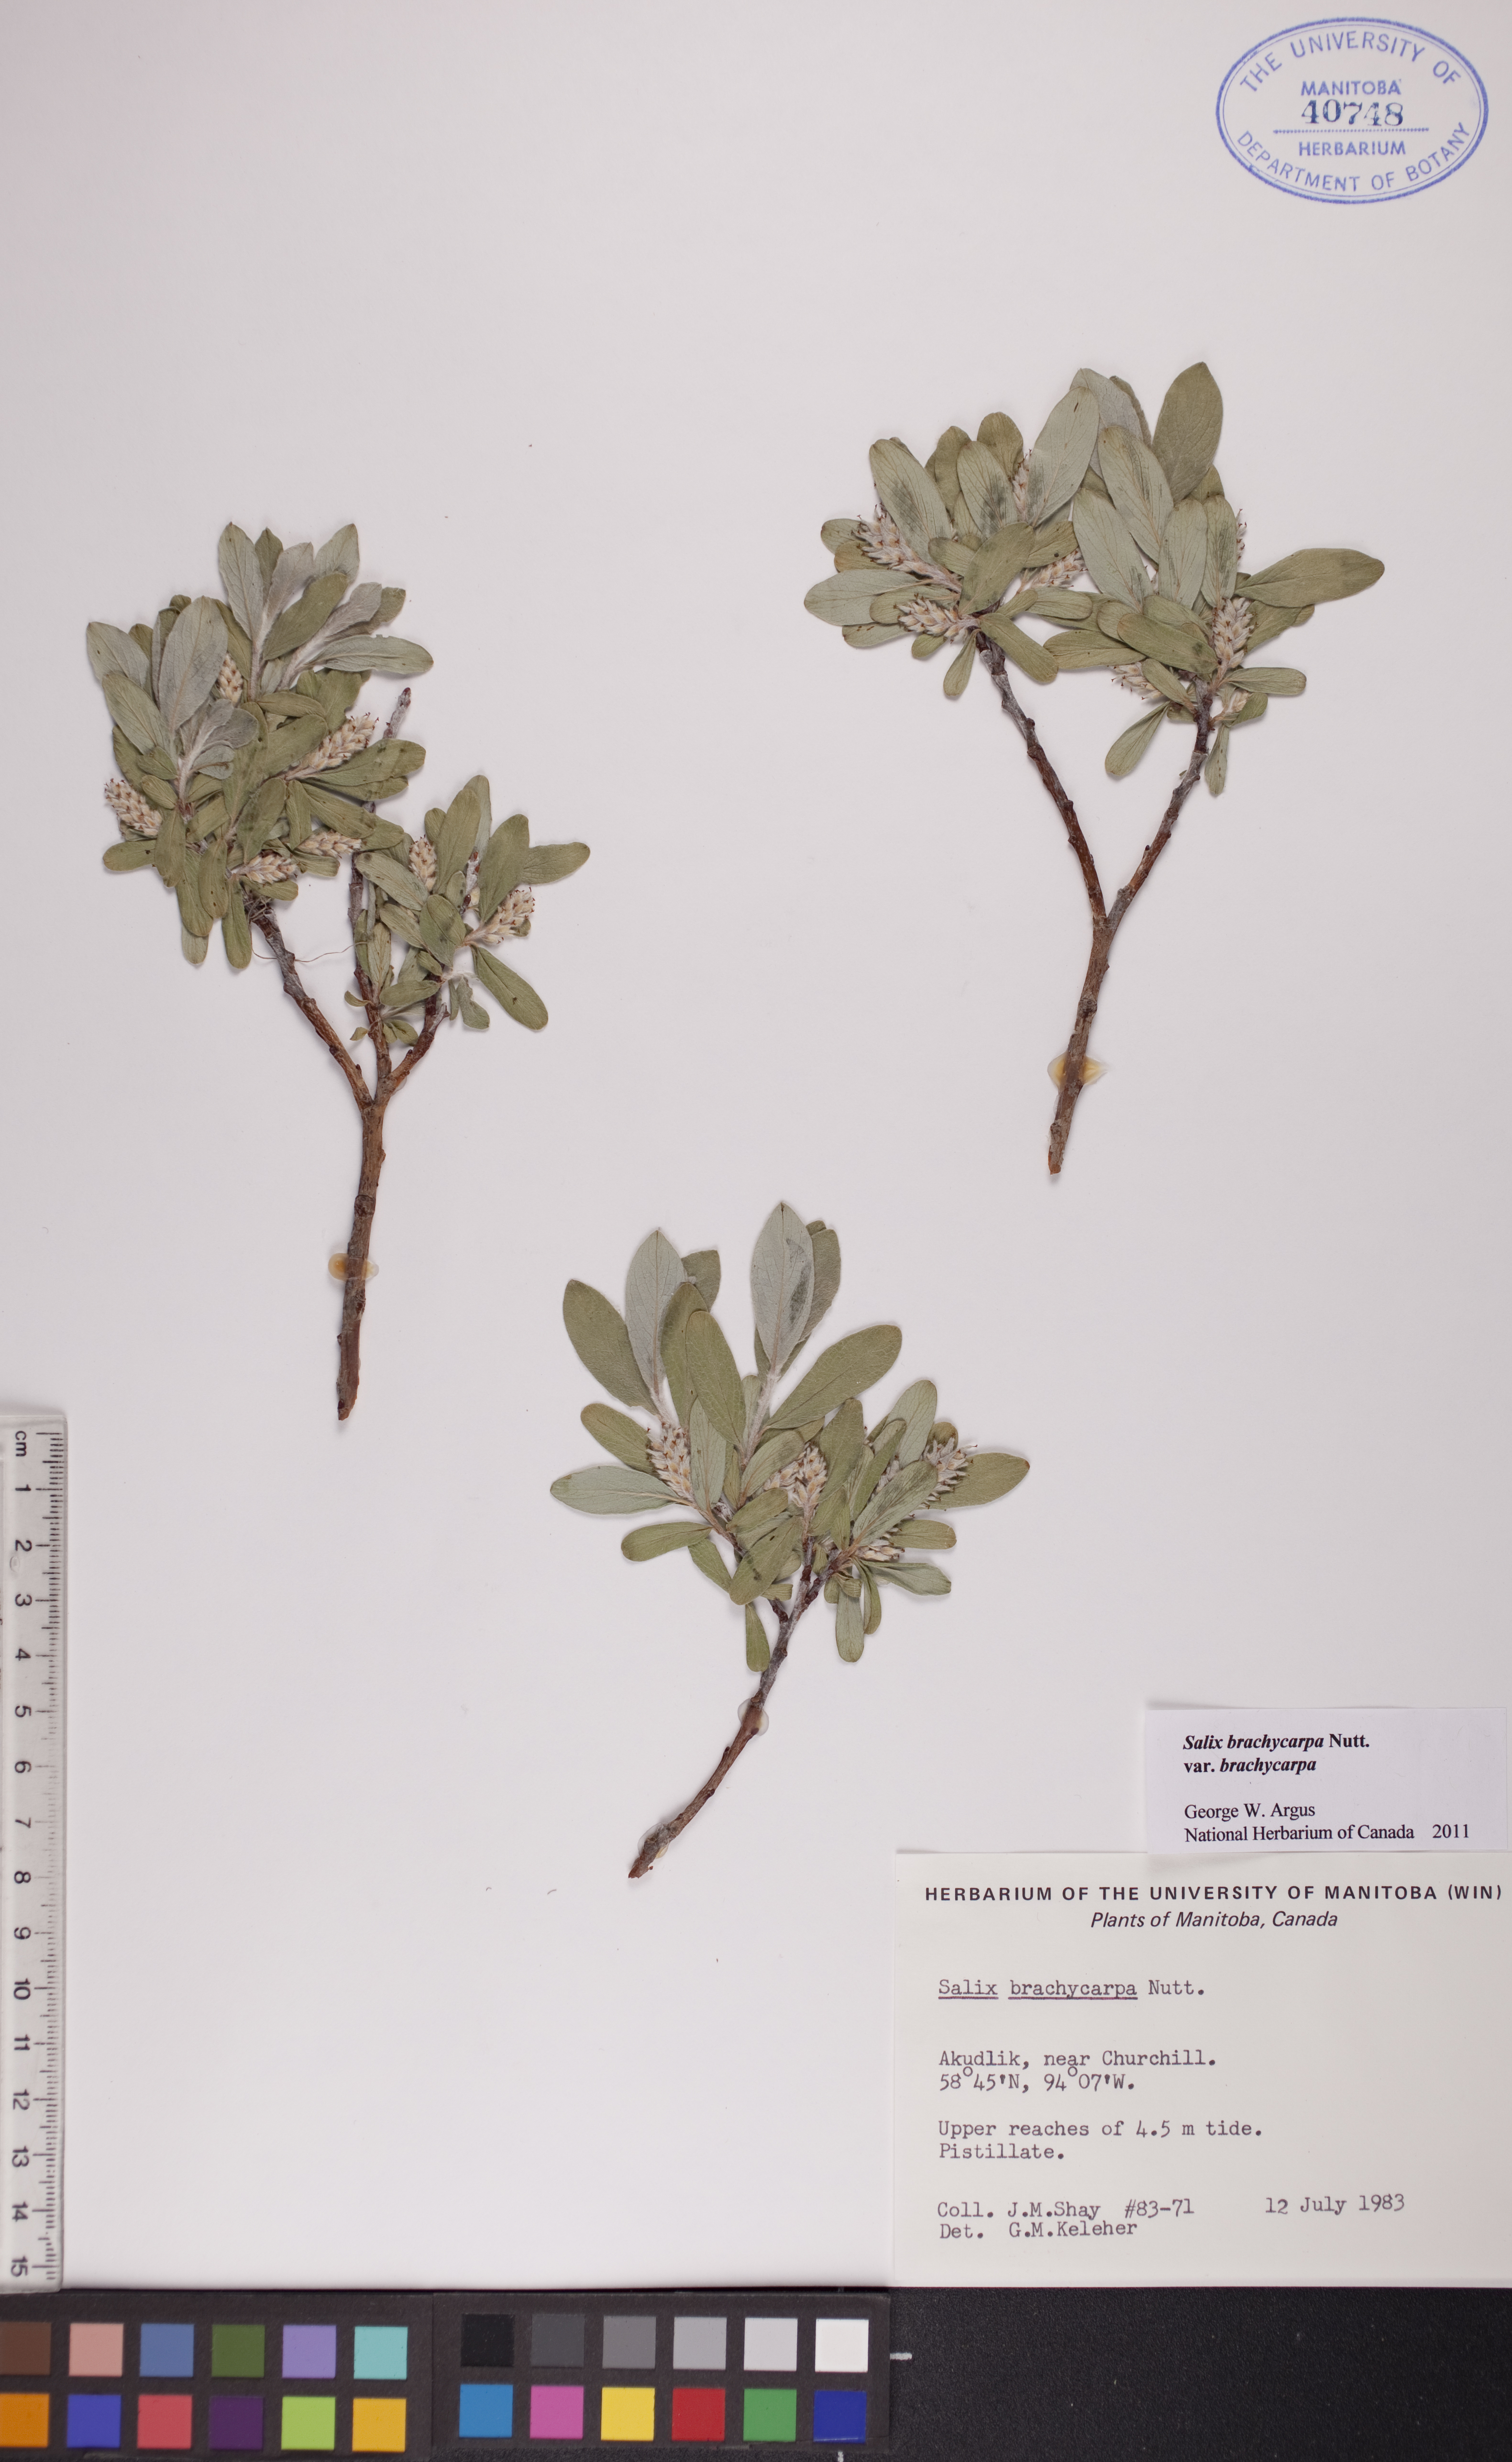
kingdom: Plantae
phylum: Tracheophyta
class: Magnoliopsida
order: Malpighiales
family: Salicaceae
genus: Salix
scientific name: Salix brachycarpa
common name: Barren-ground willow
